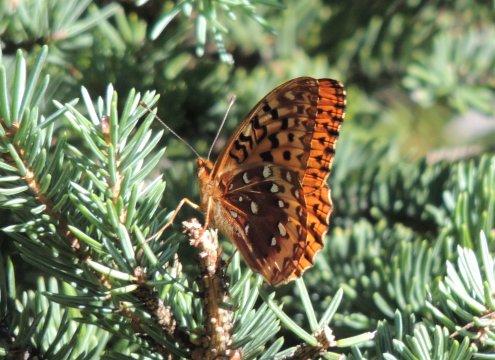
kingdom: Animalia
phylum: Arthropoda
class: Insecta
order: Lepidoptera
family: Nymphalidae
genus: Speyeria
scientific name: Speyeria cybele
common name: Great Spangled Fritillary
